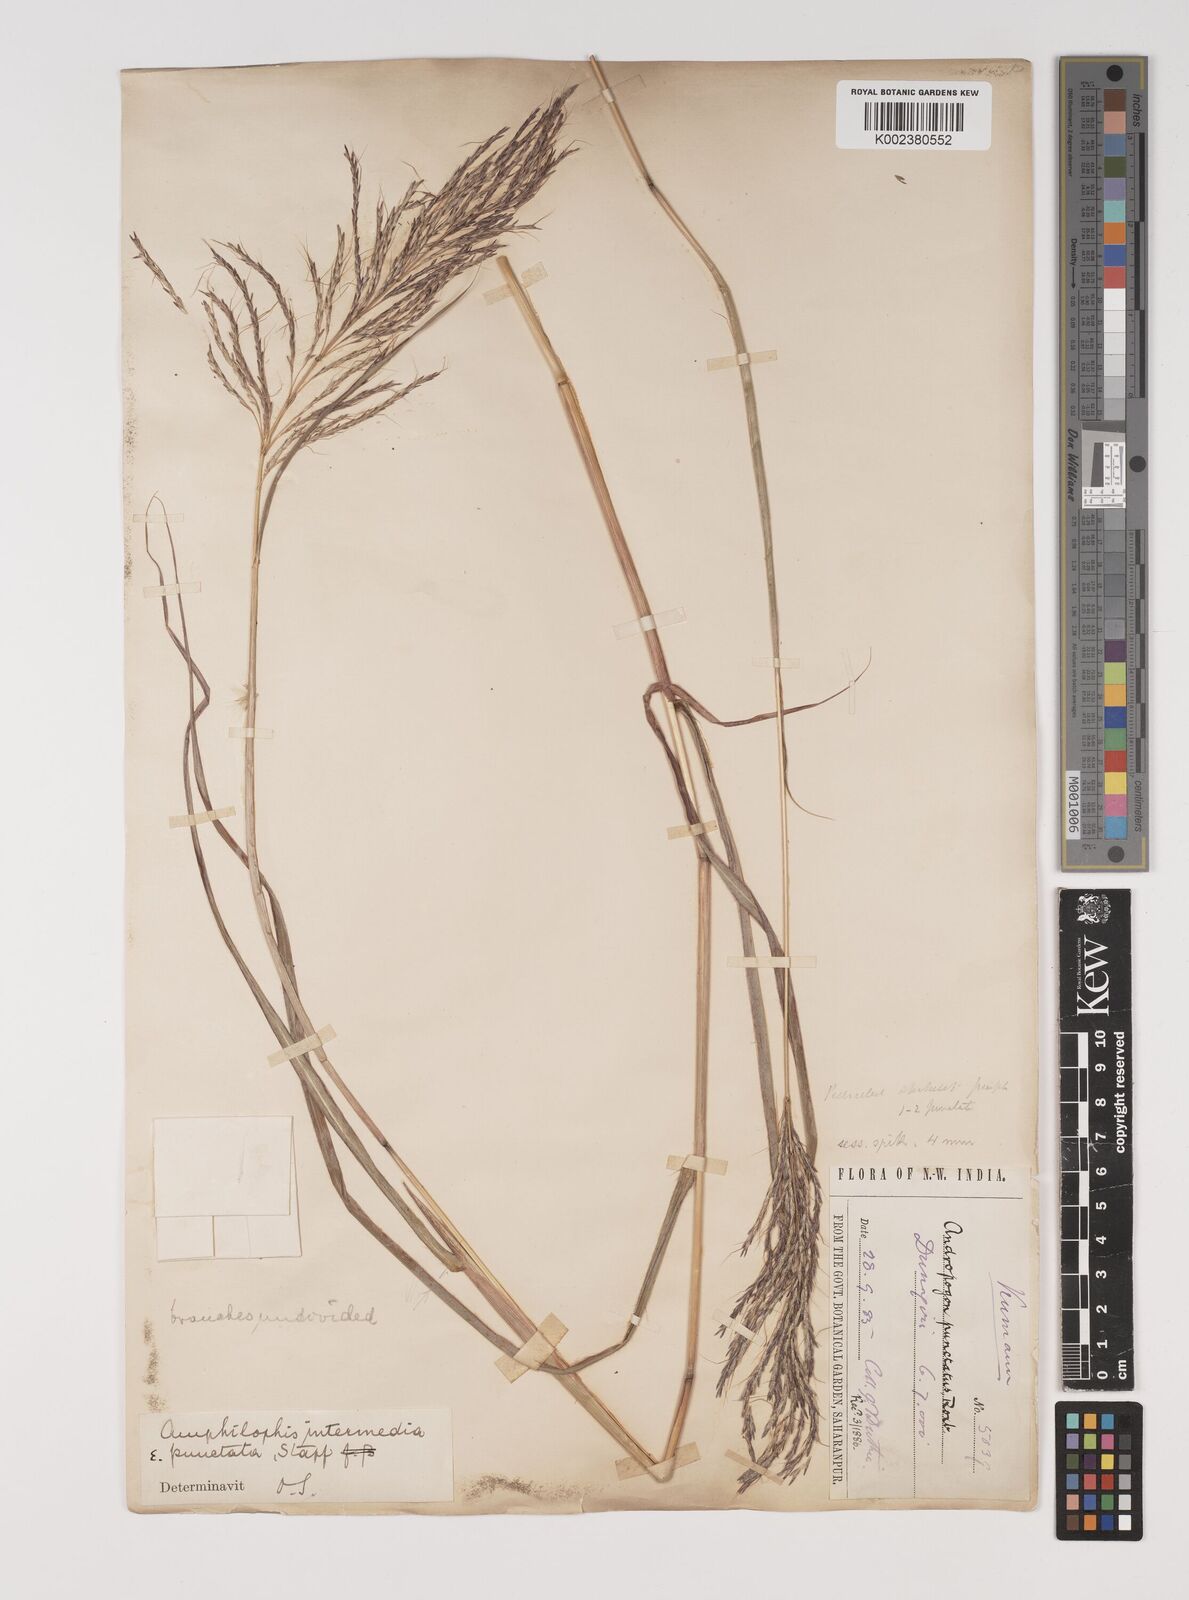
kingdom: Plantae
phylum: Tracheophyta
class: Liliopsida
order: Poales
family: Poaceae
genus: Bothriochloa
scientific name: Bothriochloa bladhii
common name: Caucasian bluestem
